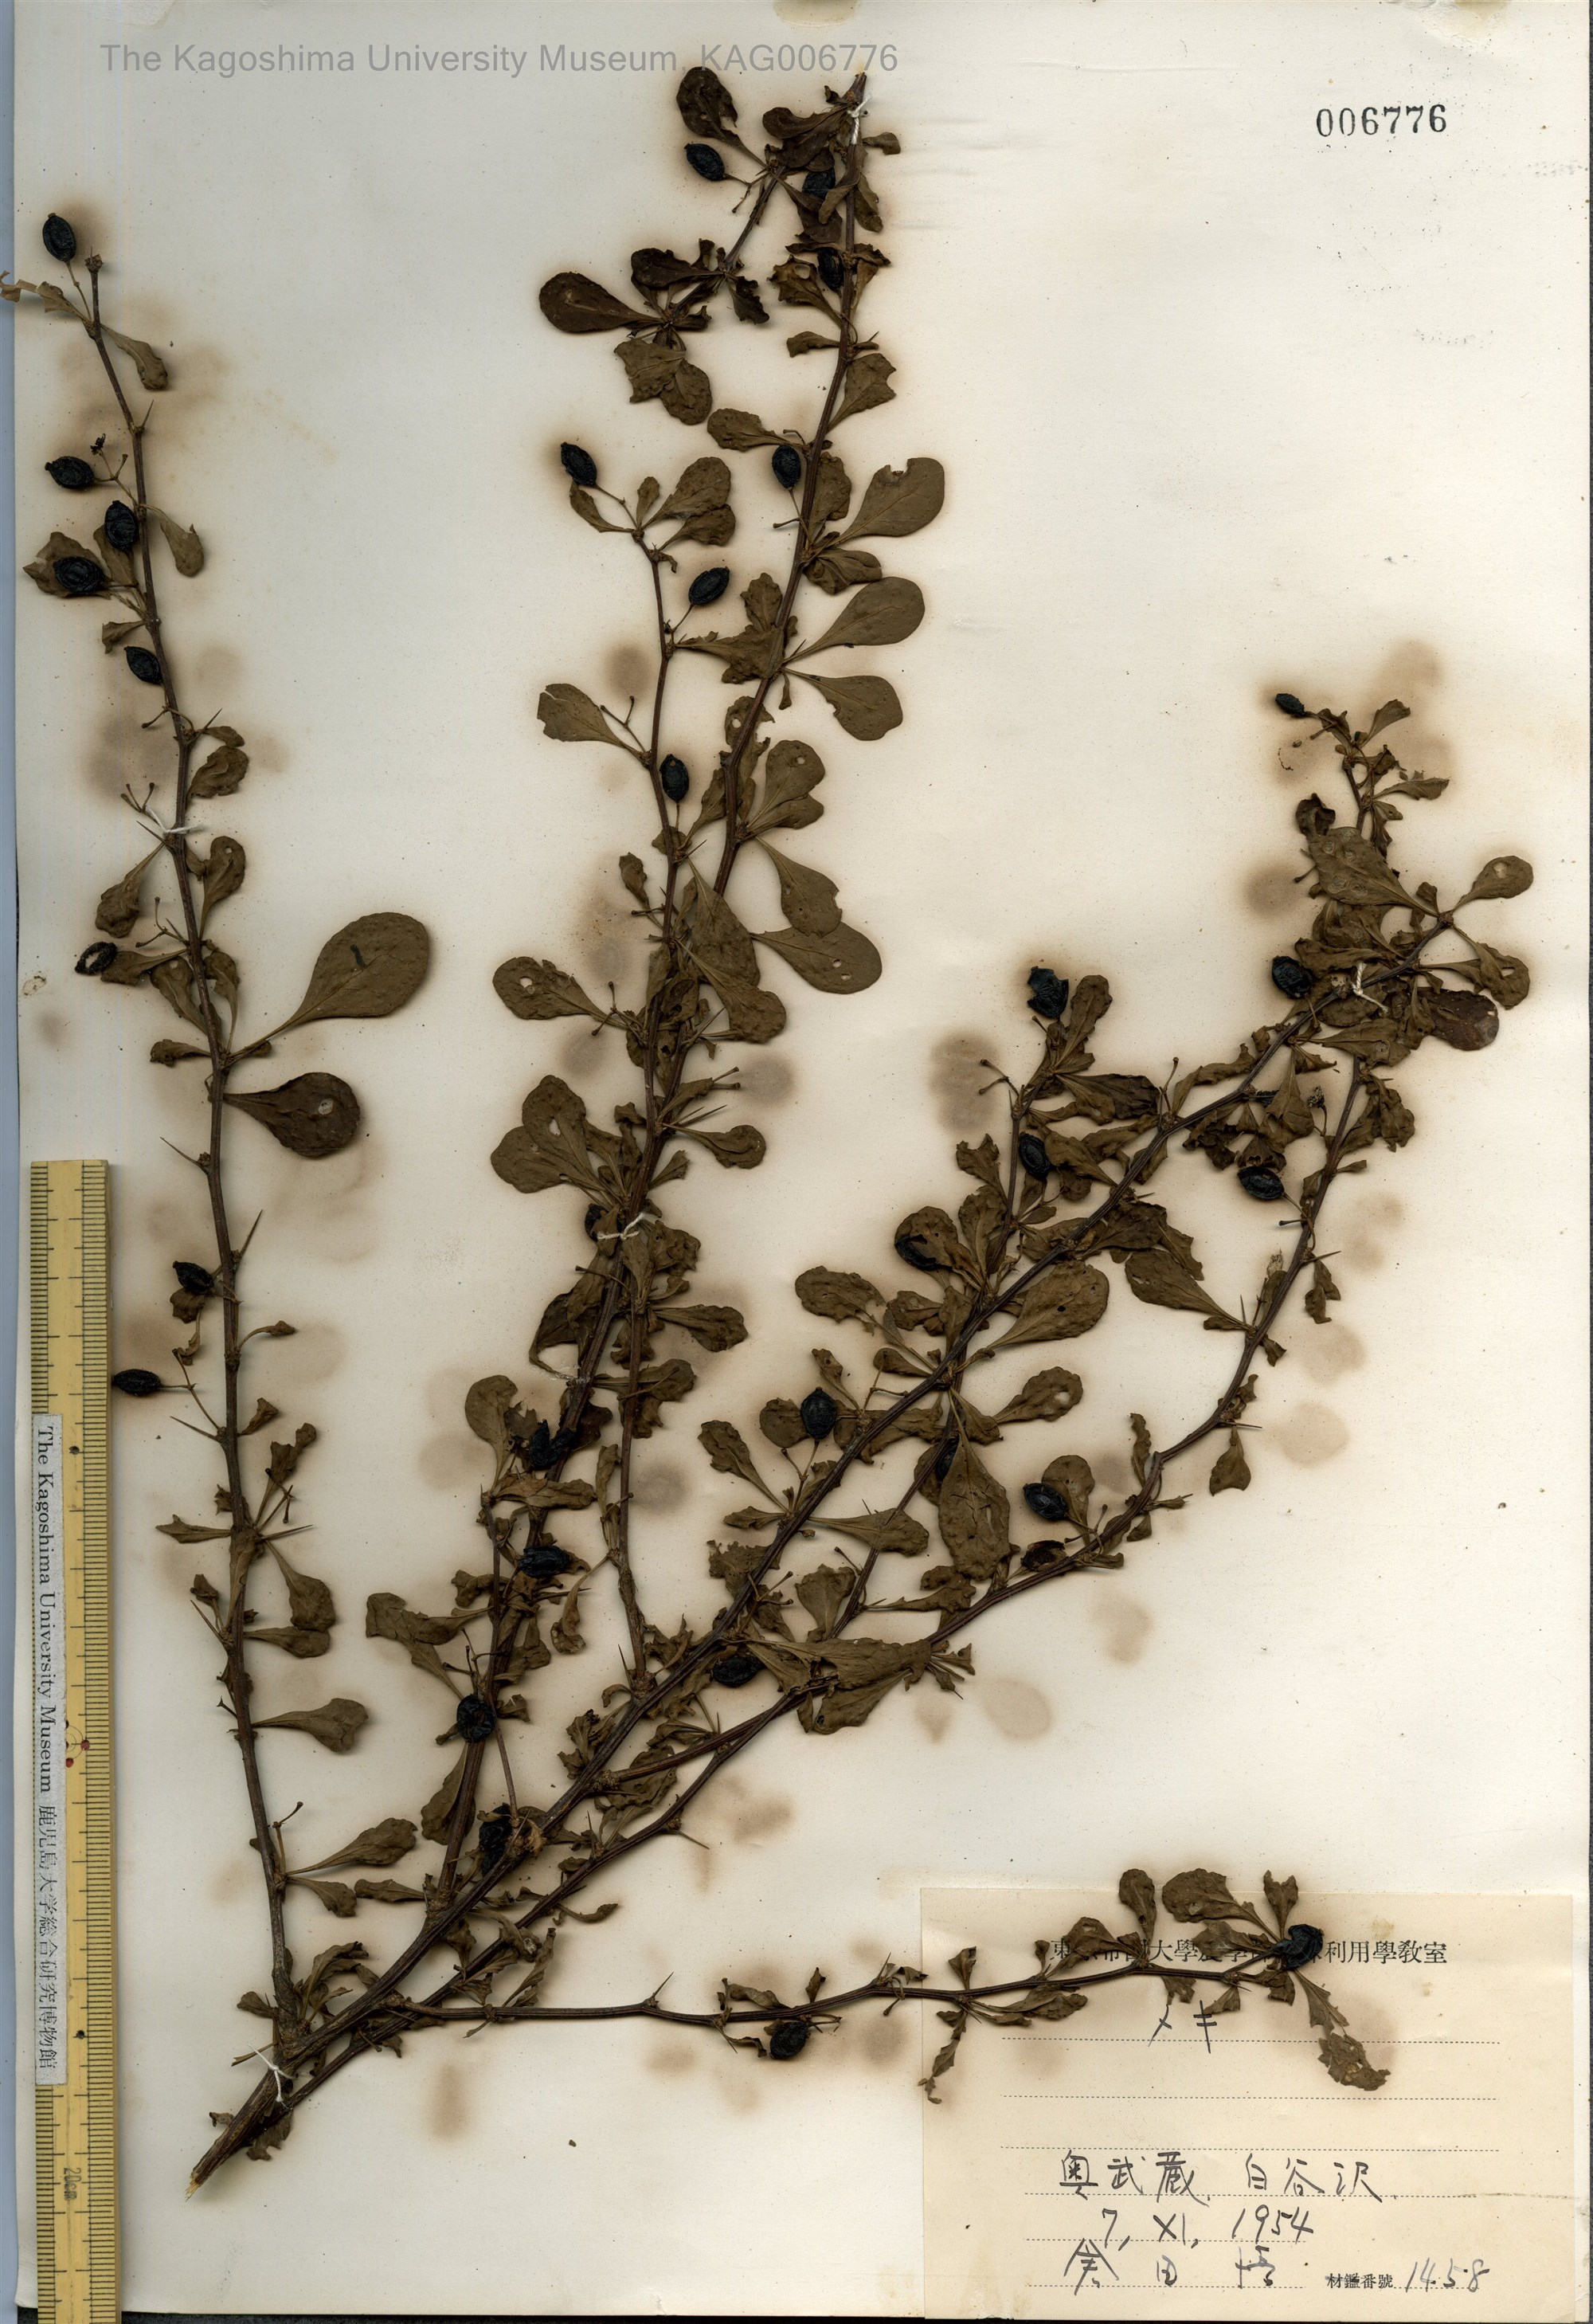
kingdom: Plantae
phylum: Tracheophyta
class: Magnoliopsida
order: Ranunculales
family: Berberidaceae
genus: Berberis
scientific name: Berberis thunbergii
